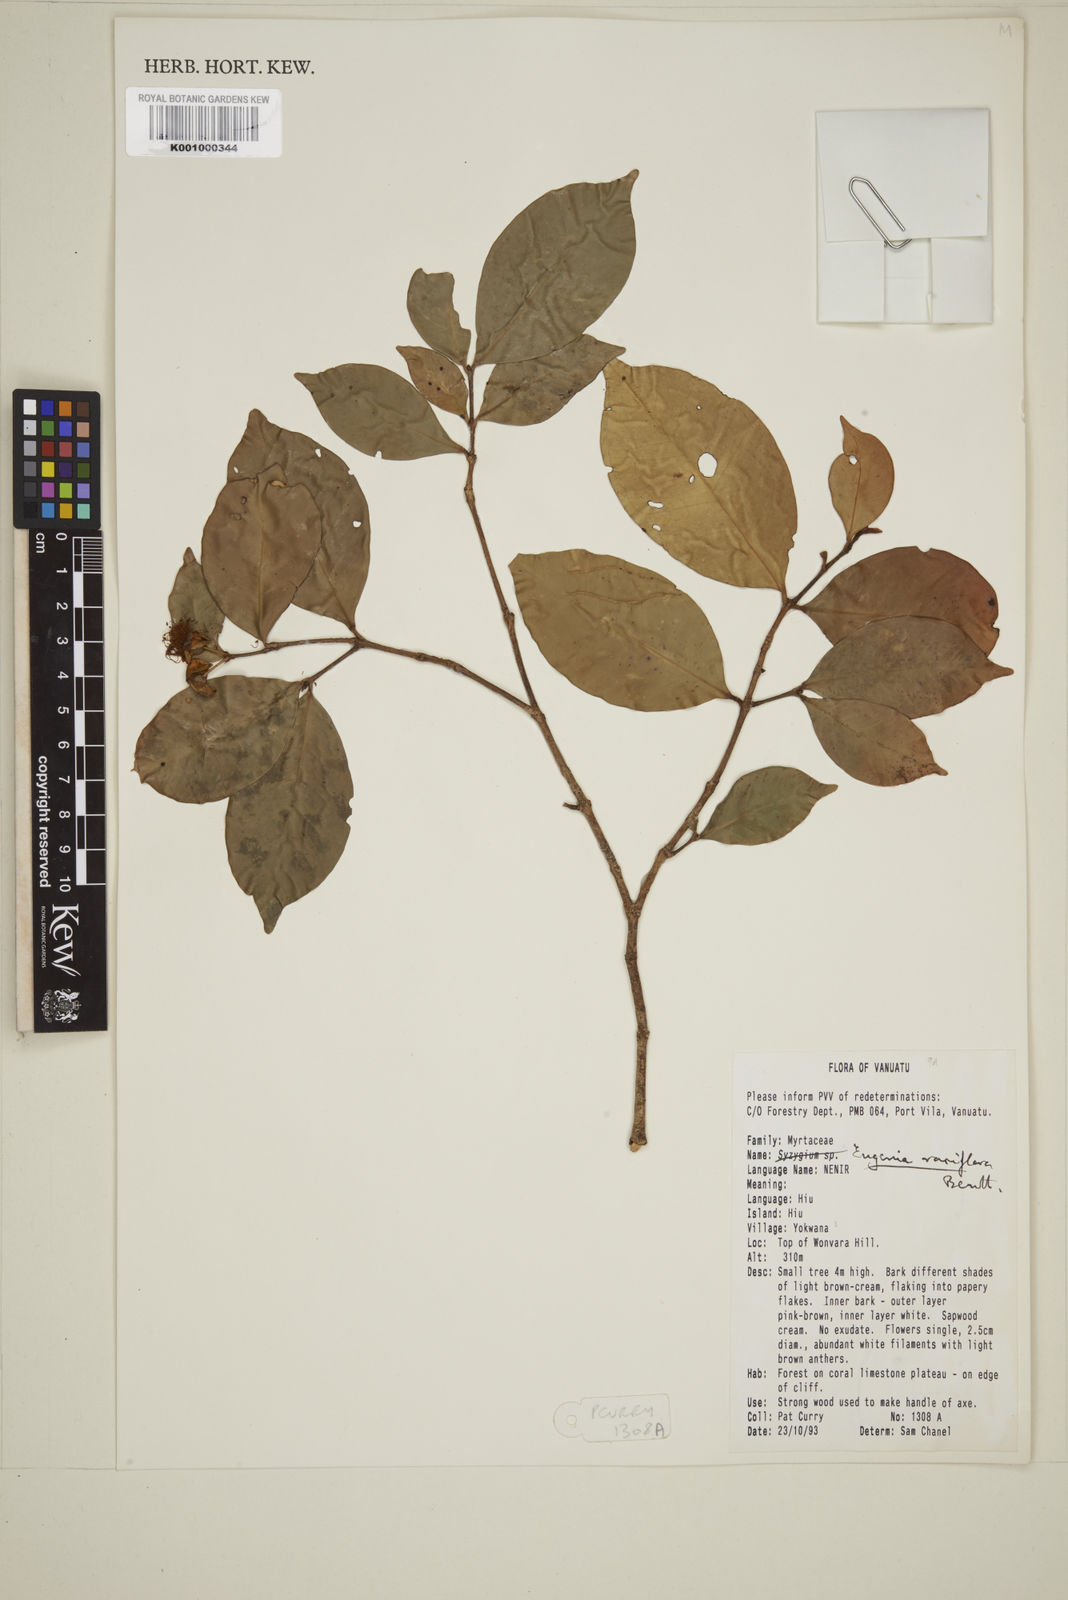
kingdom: Plantae
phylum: Tracheophyta
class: Magnoliopsida
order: Myrtales
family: Myrtaceae
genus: Eugenia
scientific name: Eugenia reinwardtiana
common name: Cedar bay-cherry
